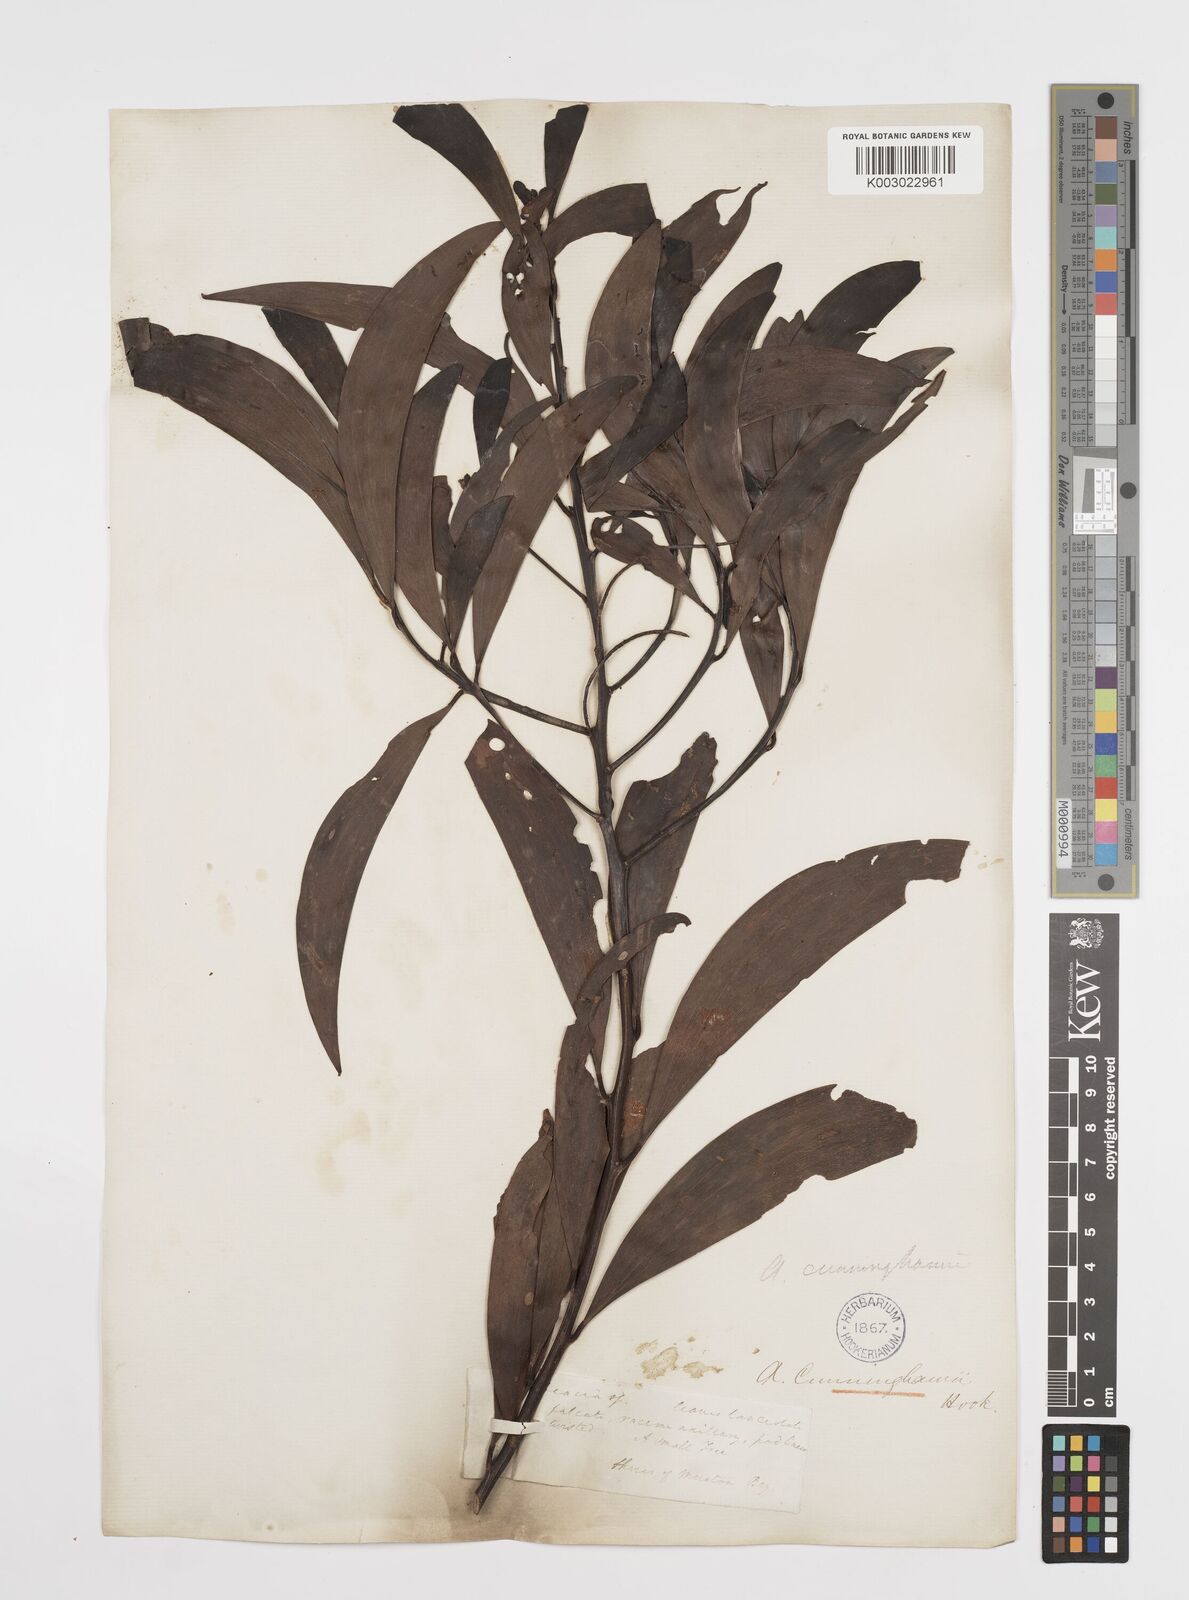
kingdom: Plantae
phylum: Tracheophyta
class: Magnoliopsida
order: Fabales
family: Fabaceae
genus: Acacia
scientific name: Acacia longispicata
